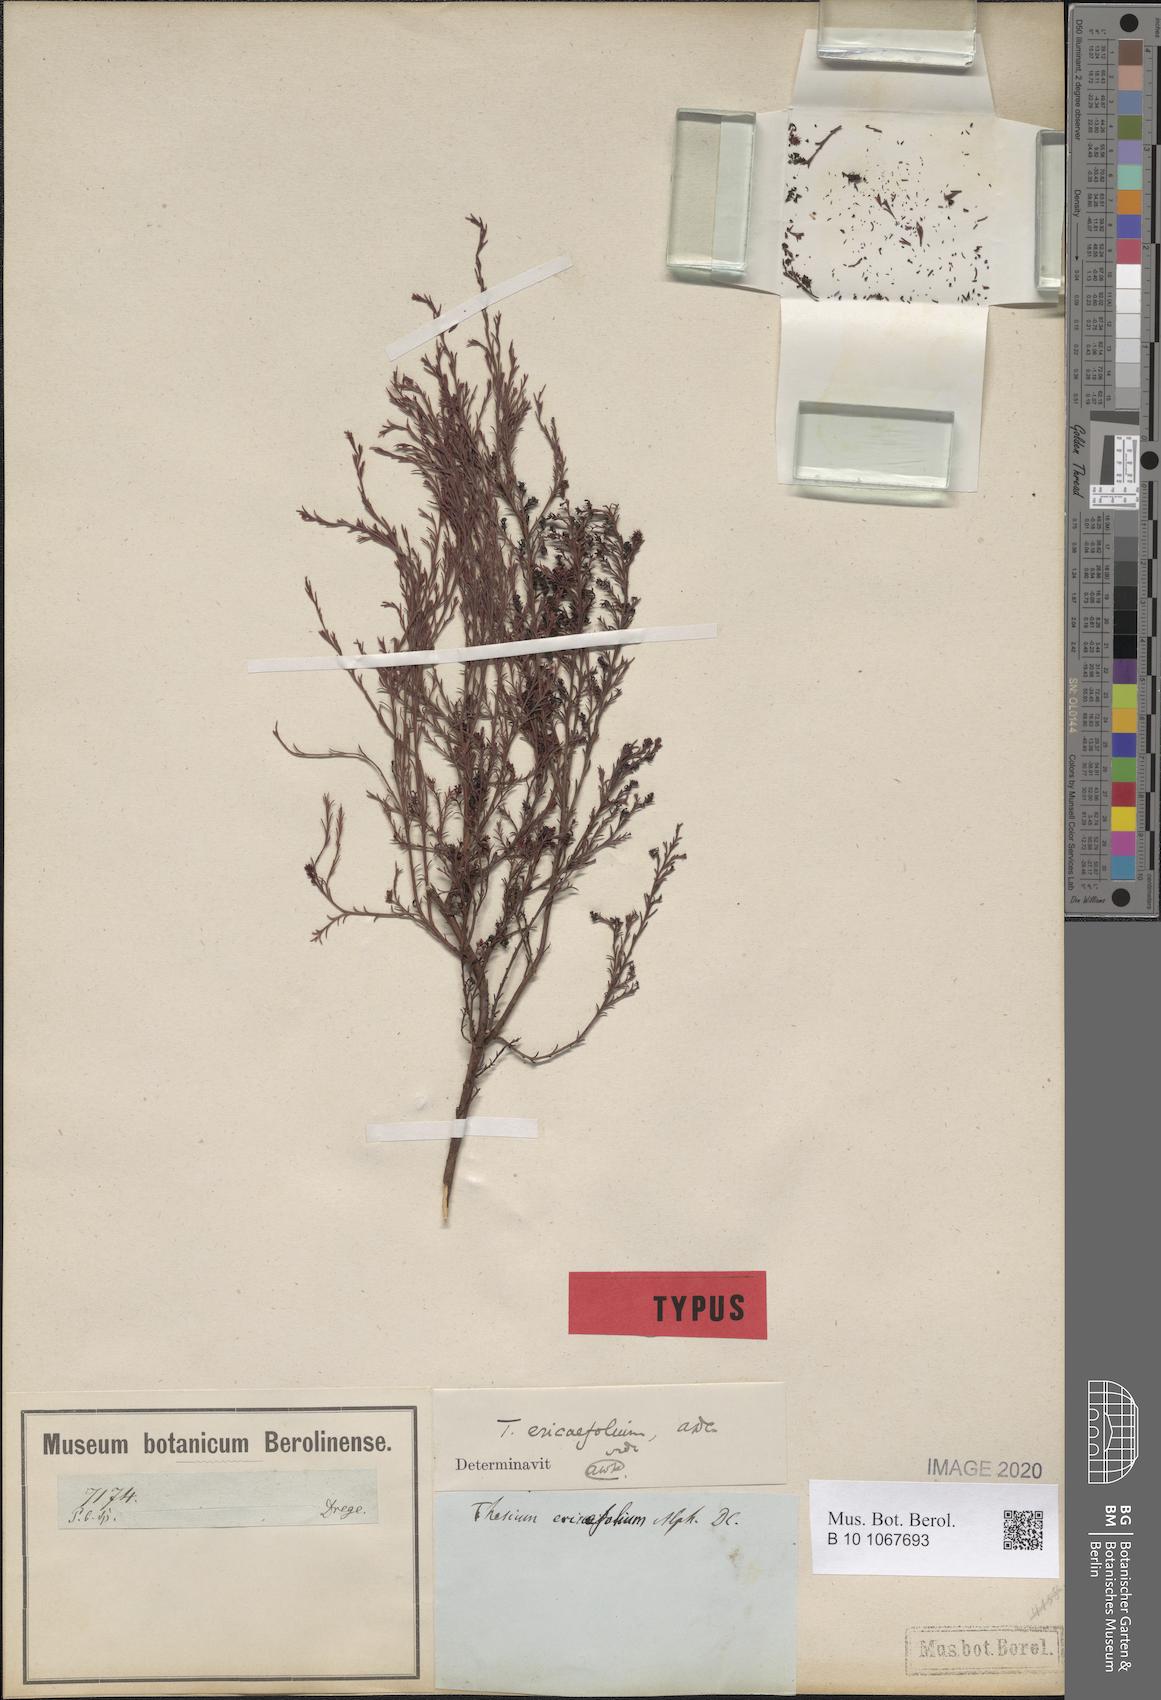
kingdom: Plantae
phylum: Tracheophyta
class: Magnoliopsida
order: Santalales
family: Thesiaceae
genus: Thesium
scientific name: Thesium ericaefolium
